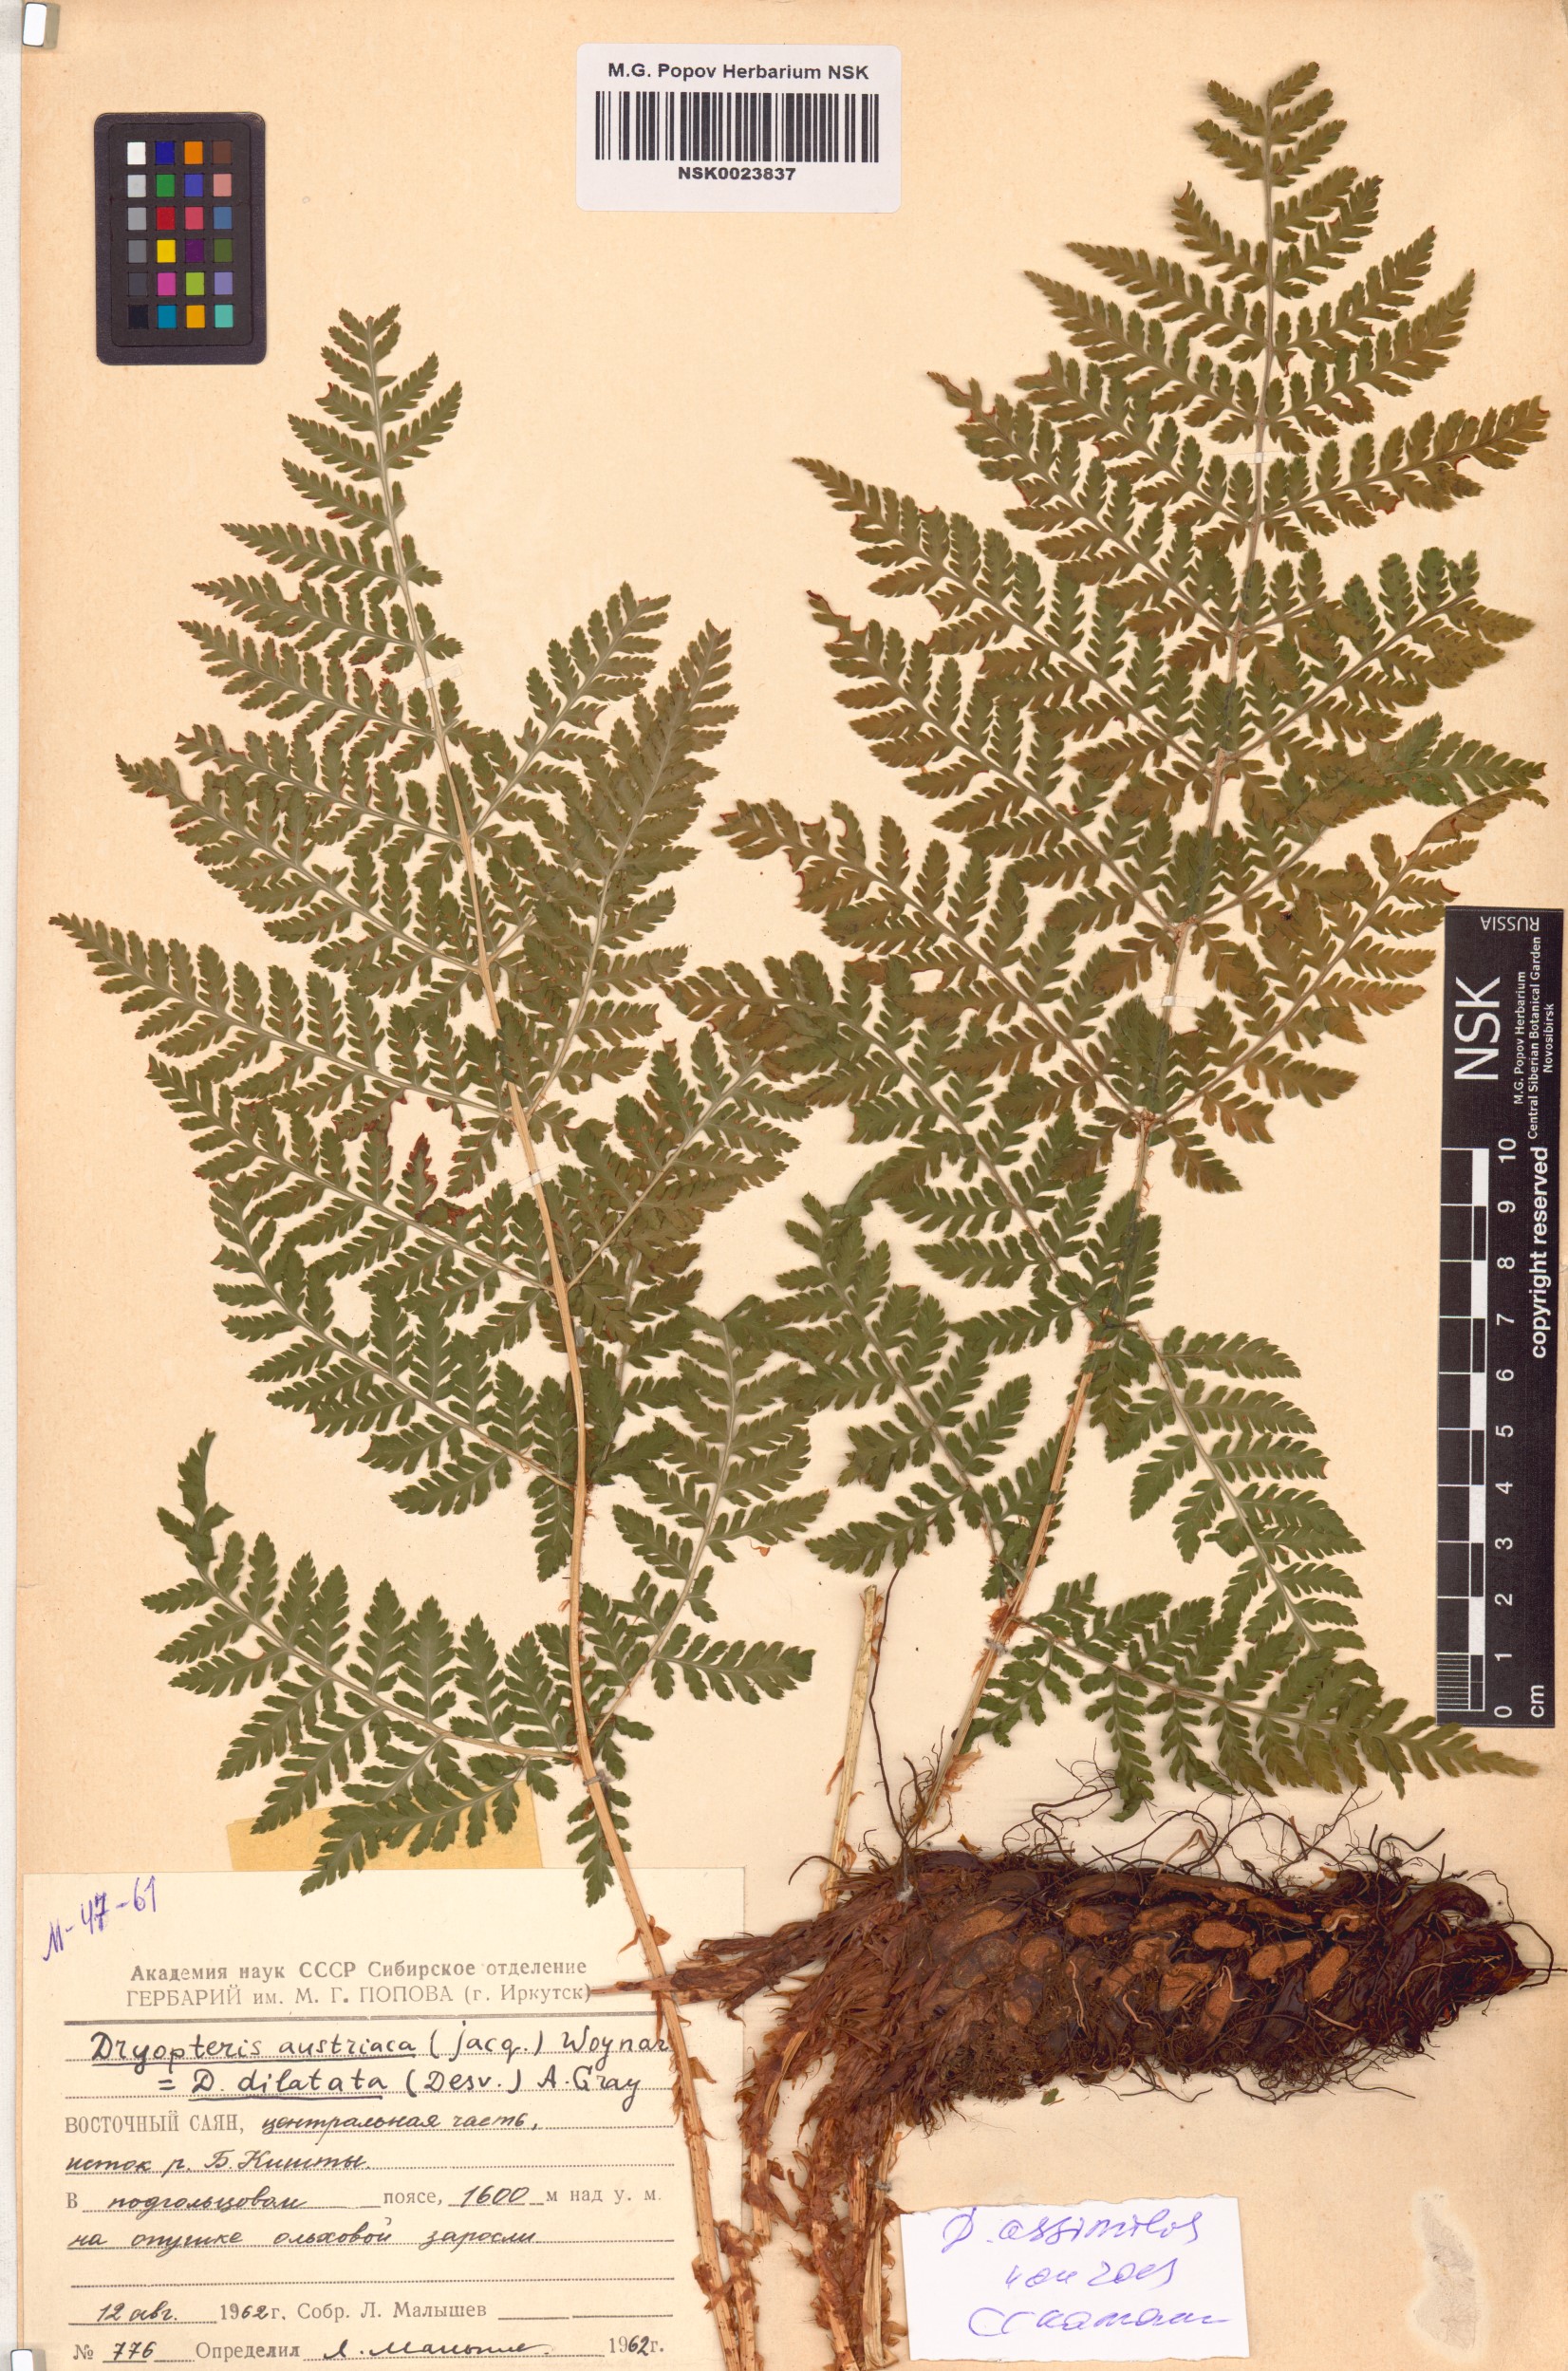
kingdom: Plantae
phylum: Tracheophyta
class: Polypodiopsida
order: Polypodiales
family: Dryopteridaceae
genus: Dryopteris
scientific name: Dryopteris expansa
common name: Northern buckler fern
